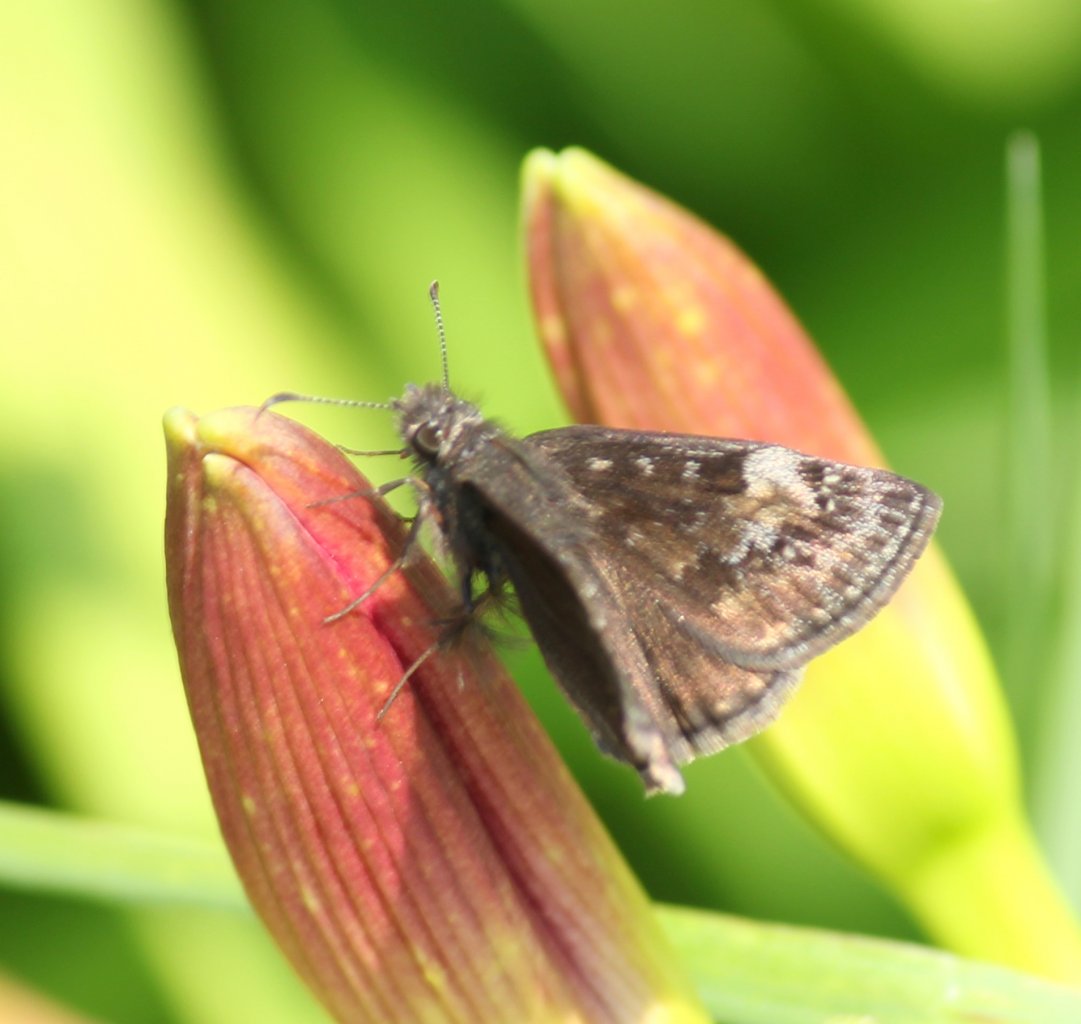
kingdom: Animalia
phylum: Arthropoda
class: Insecta
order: Lepidoptera
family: Hesperiidae
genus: Gesta
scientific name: Gesta
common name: Wild Indigo Duskywing
